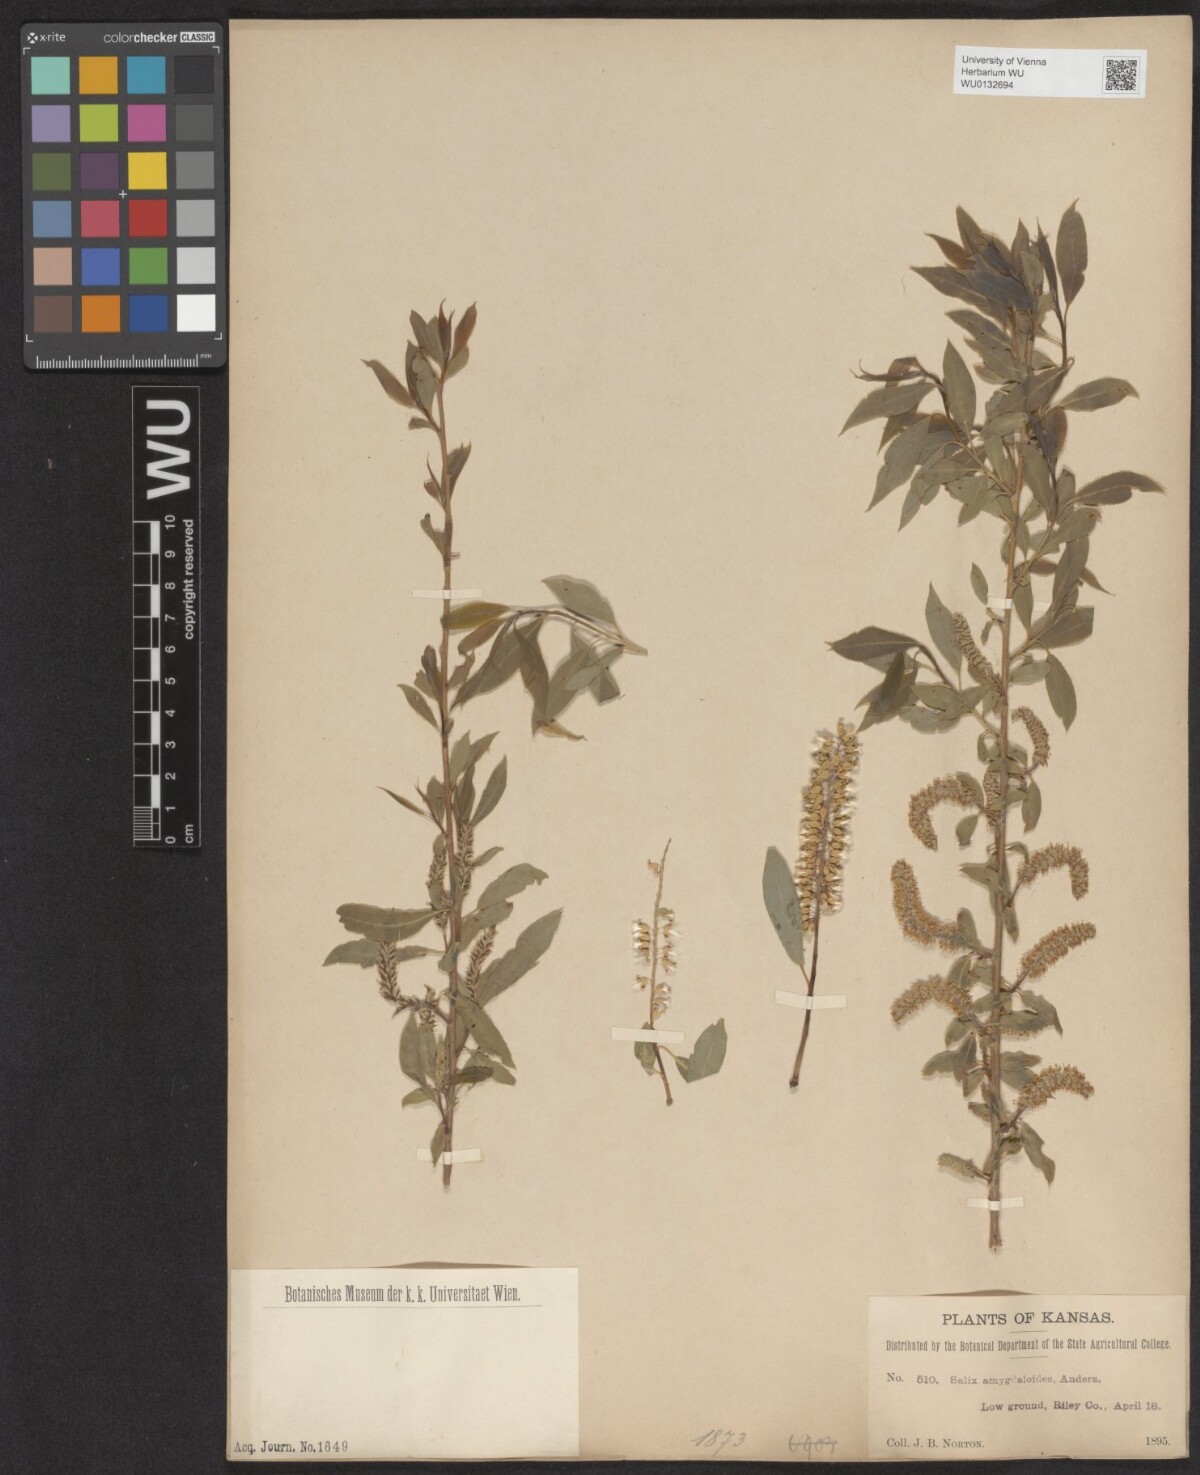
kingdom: Plantae
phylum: Tracheophyta
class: Magnoliopsida
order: Malpighiales
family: Salicaceae
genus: Salix
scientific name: Salix amygdaloides
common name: Peach leaf willow
